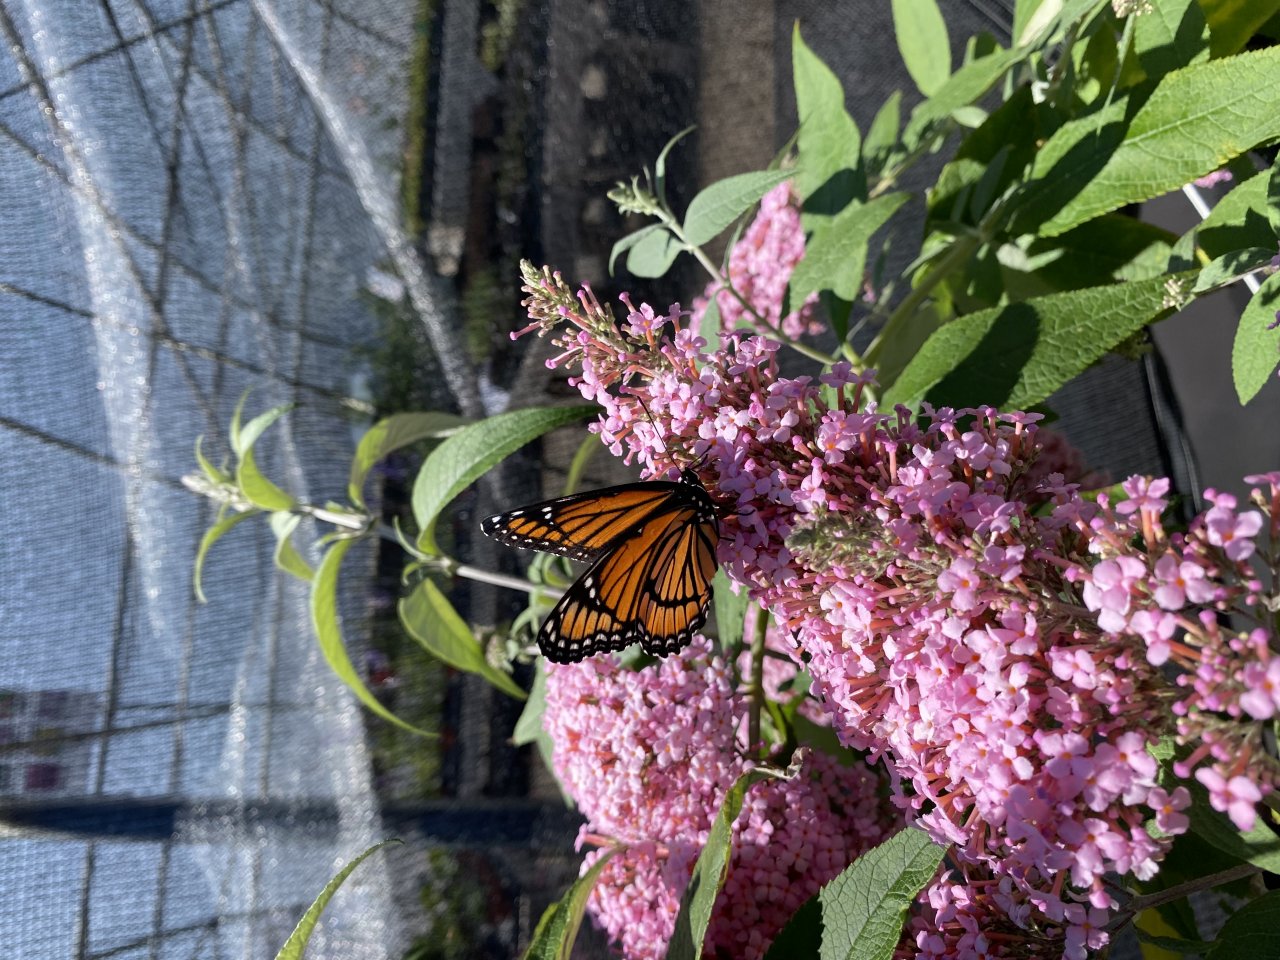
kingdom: Animalia
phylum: Arthropoda
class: Insecta
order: Lepidoptera
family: Nymphalidae
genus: Limenitis
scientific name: Limenitis archippus
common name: Viceroy
